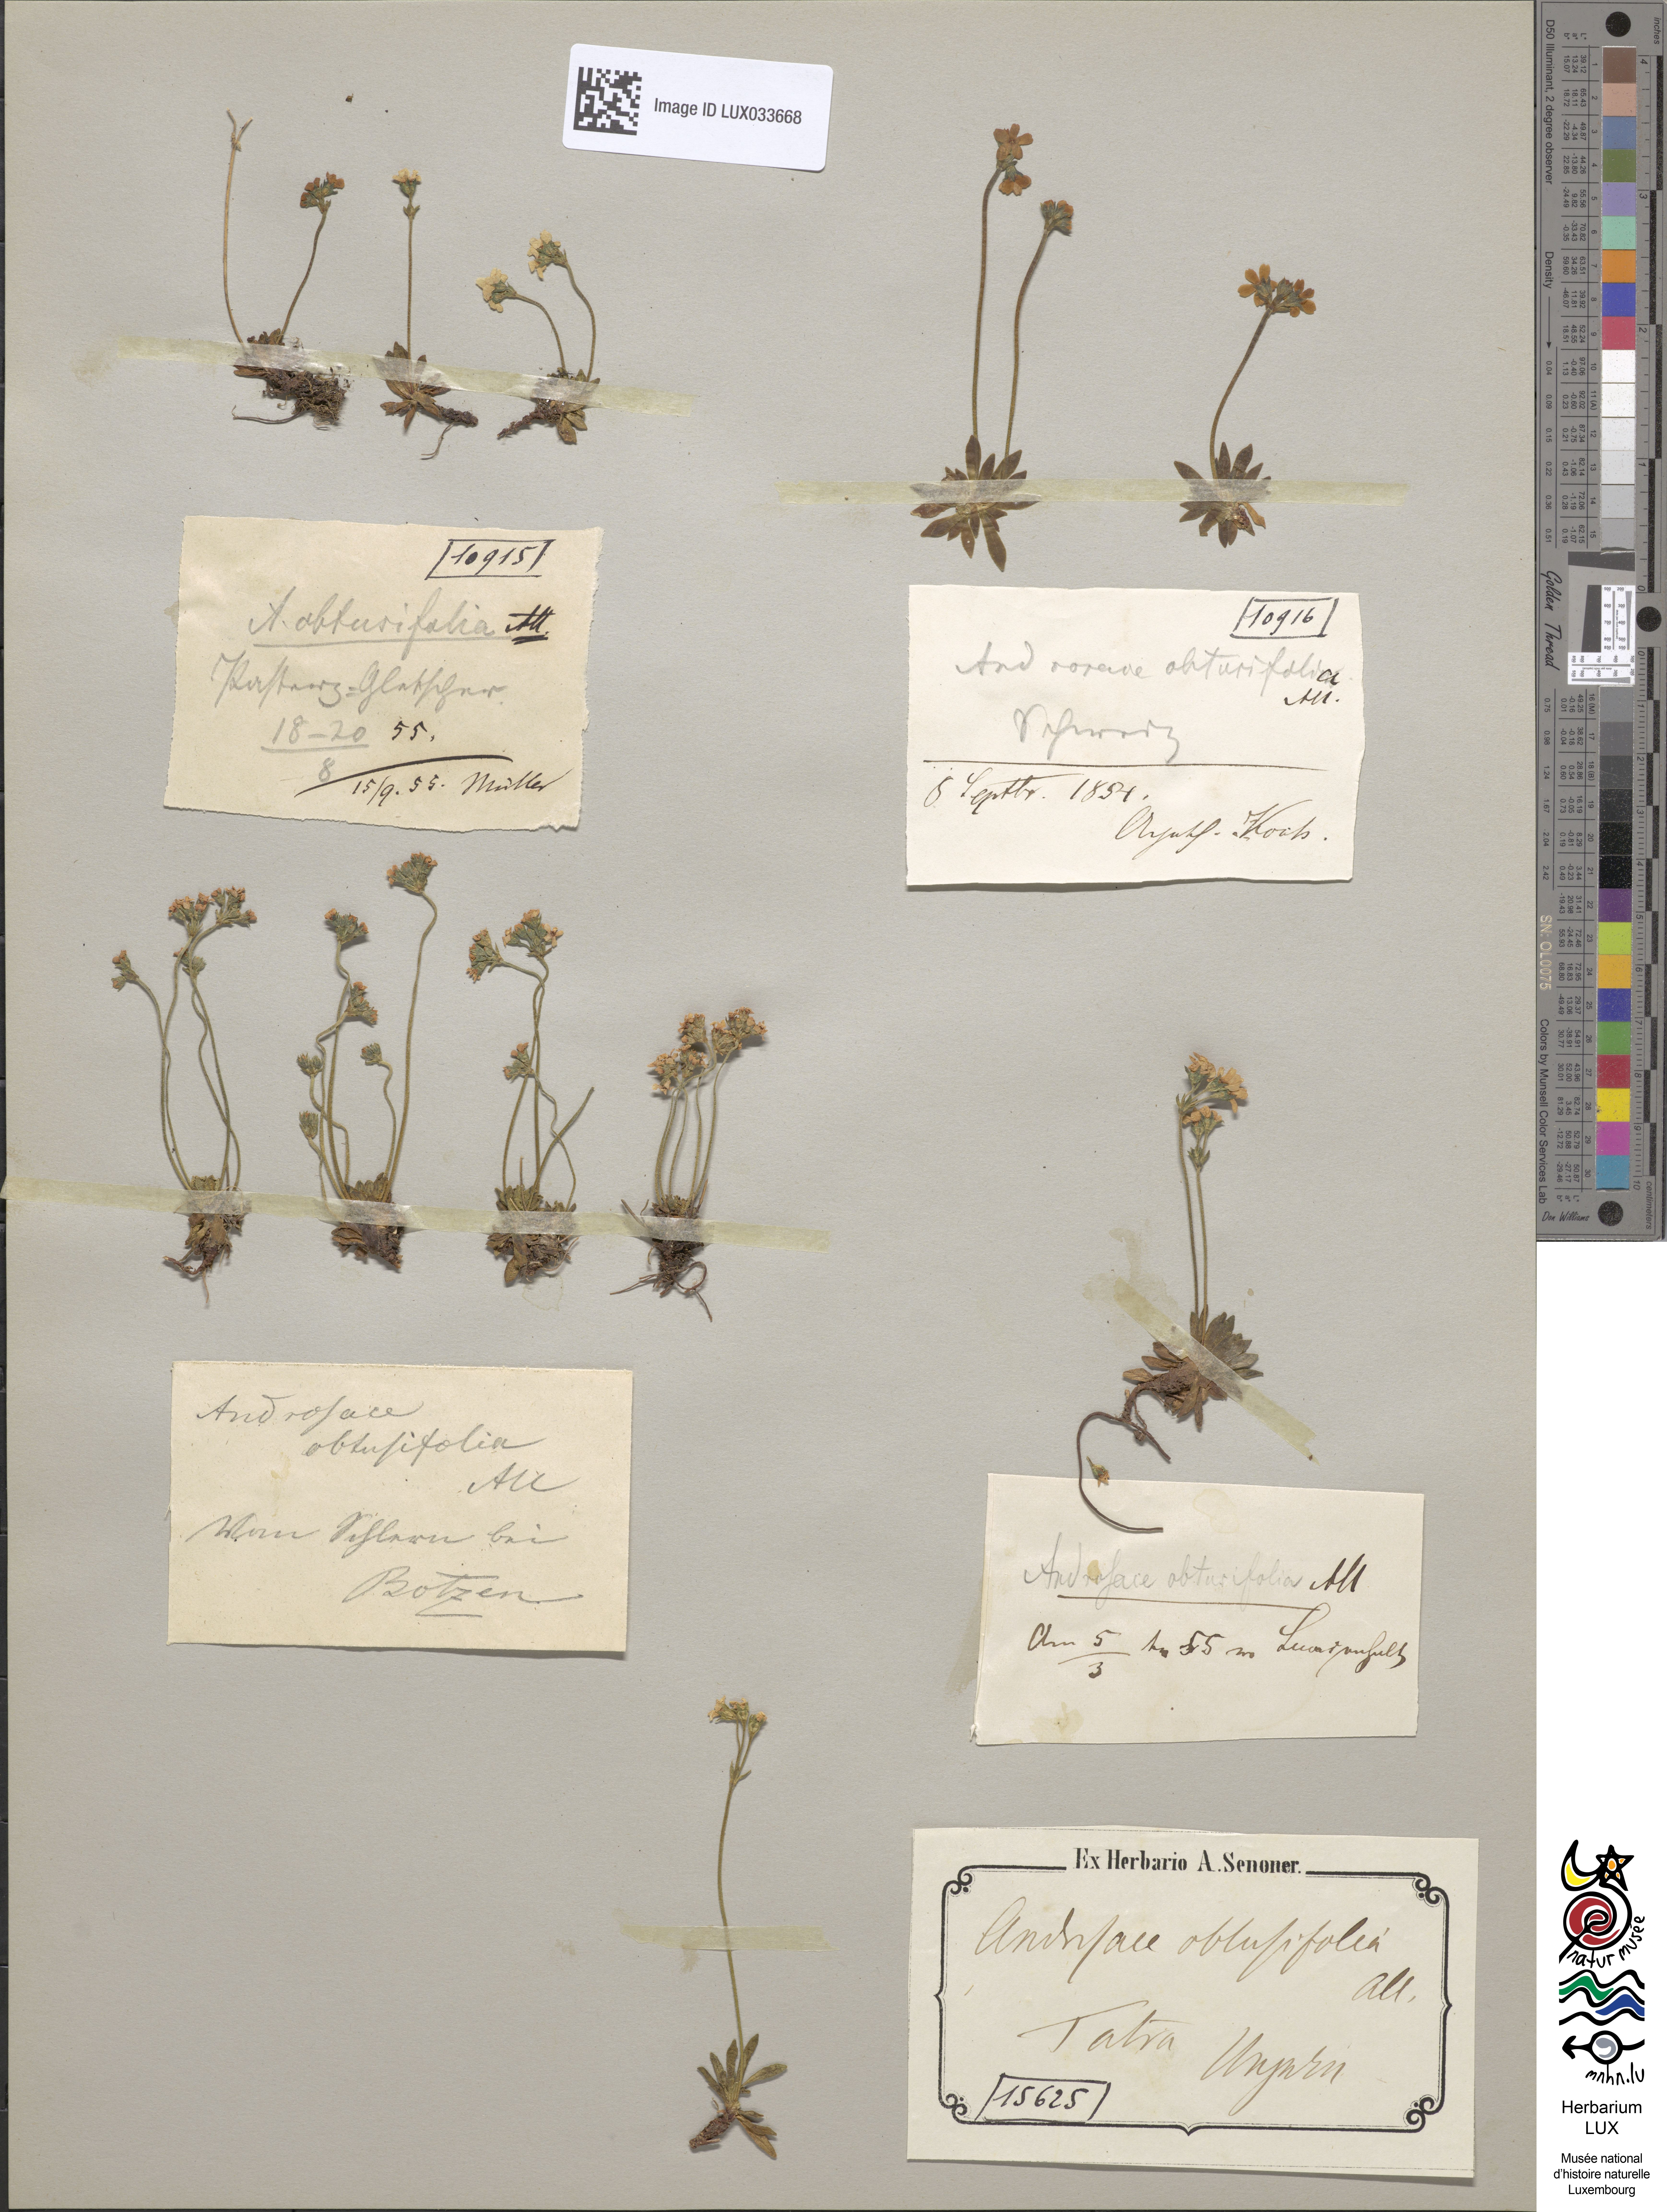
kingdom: Plantae
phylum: Tracheophyta
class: Magnoliopsida
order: Ericales
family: Primulaceae
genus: Androsace
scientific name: Androsace obtusifolia
